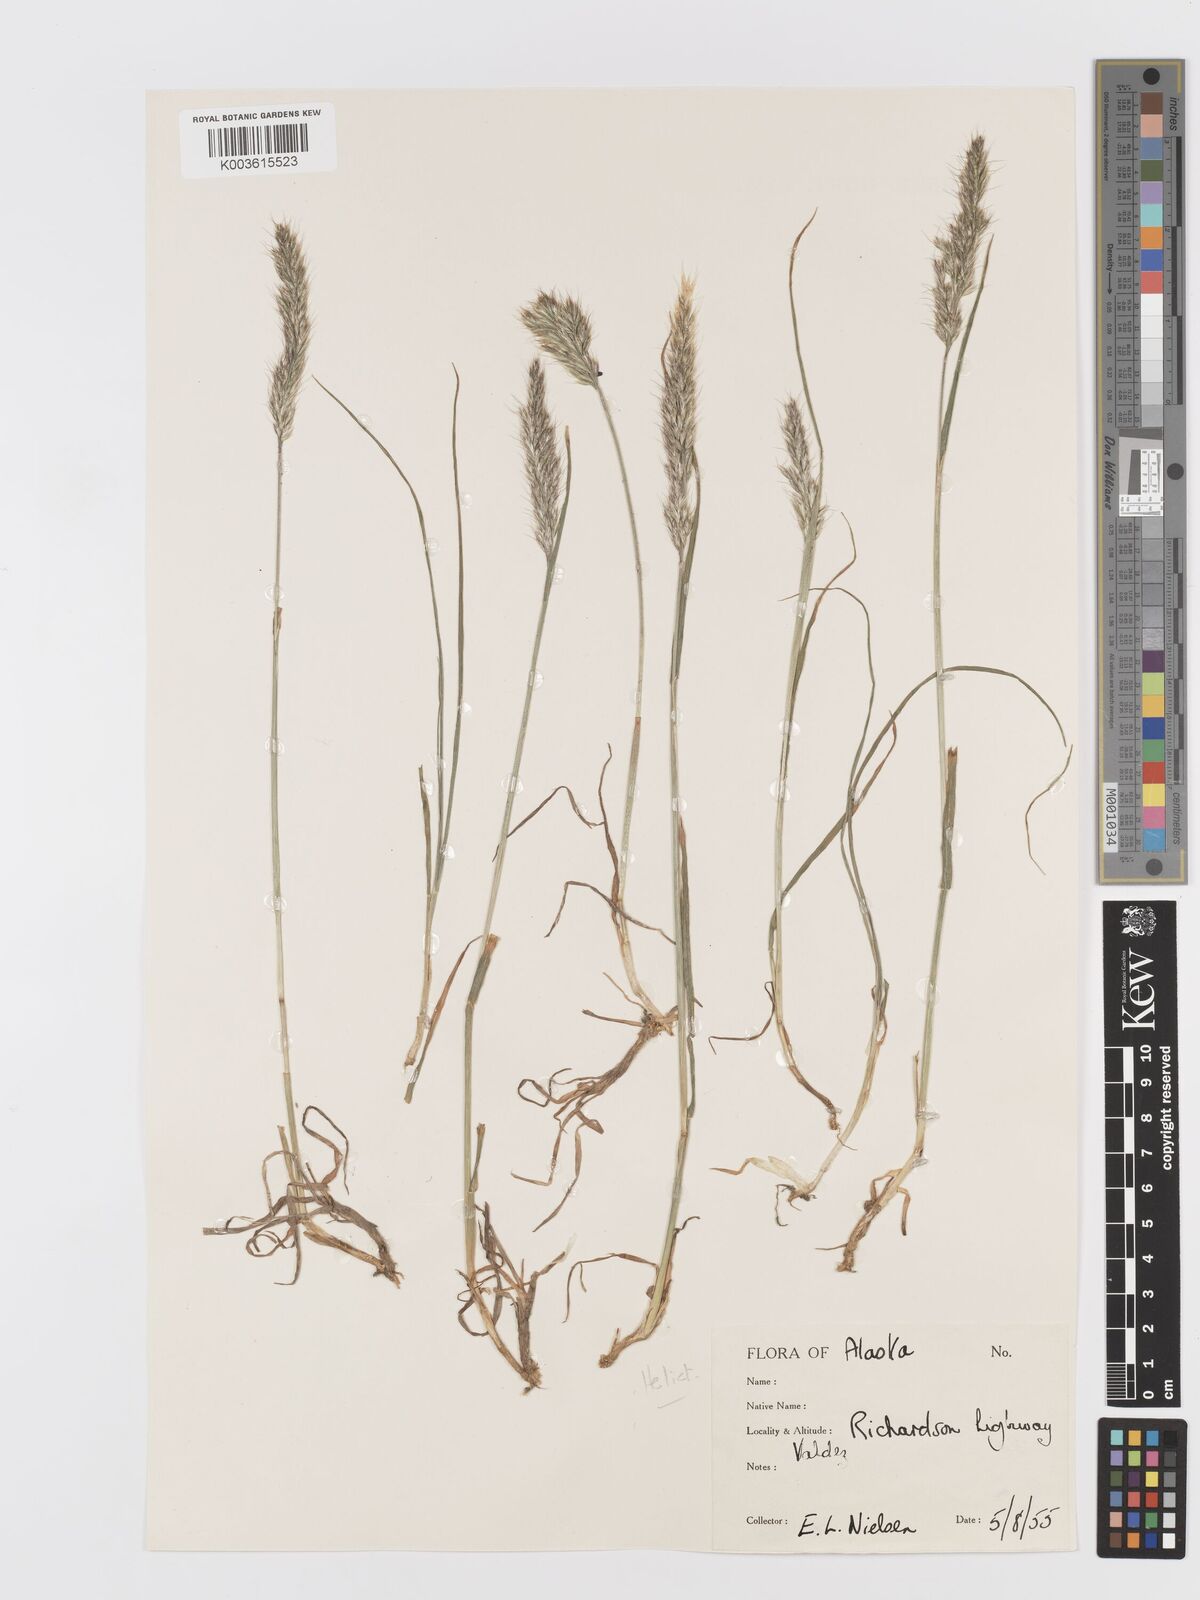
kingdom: Plantae
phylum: Tracheophyta
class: Liliopsida
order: Poales
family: Poaceae
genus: Koeleria
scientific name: Koeleria spicata
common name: Mountain trisetum
